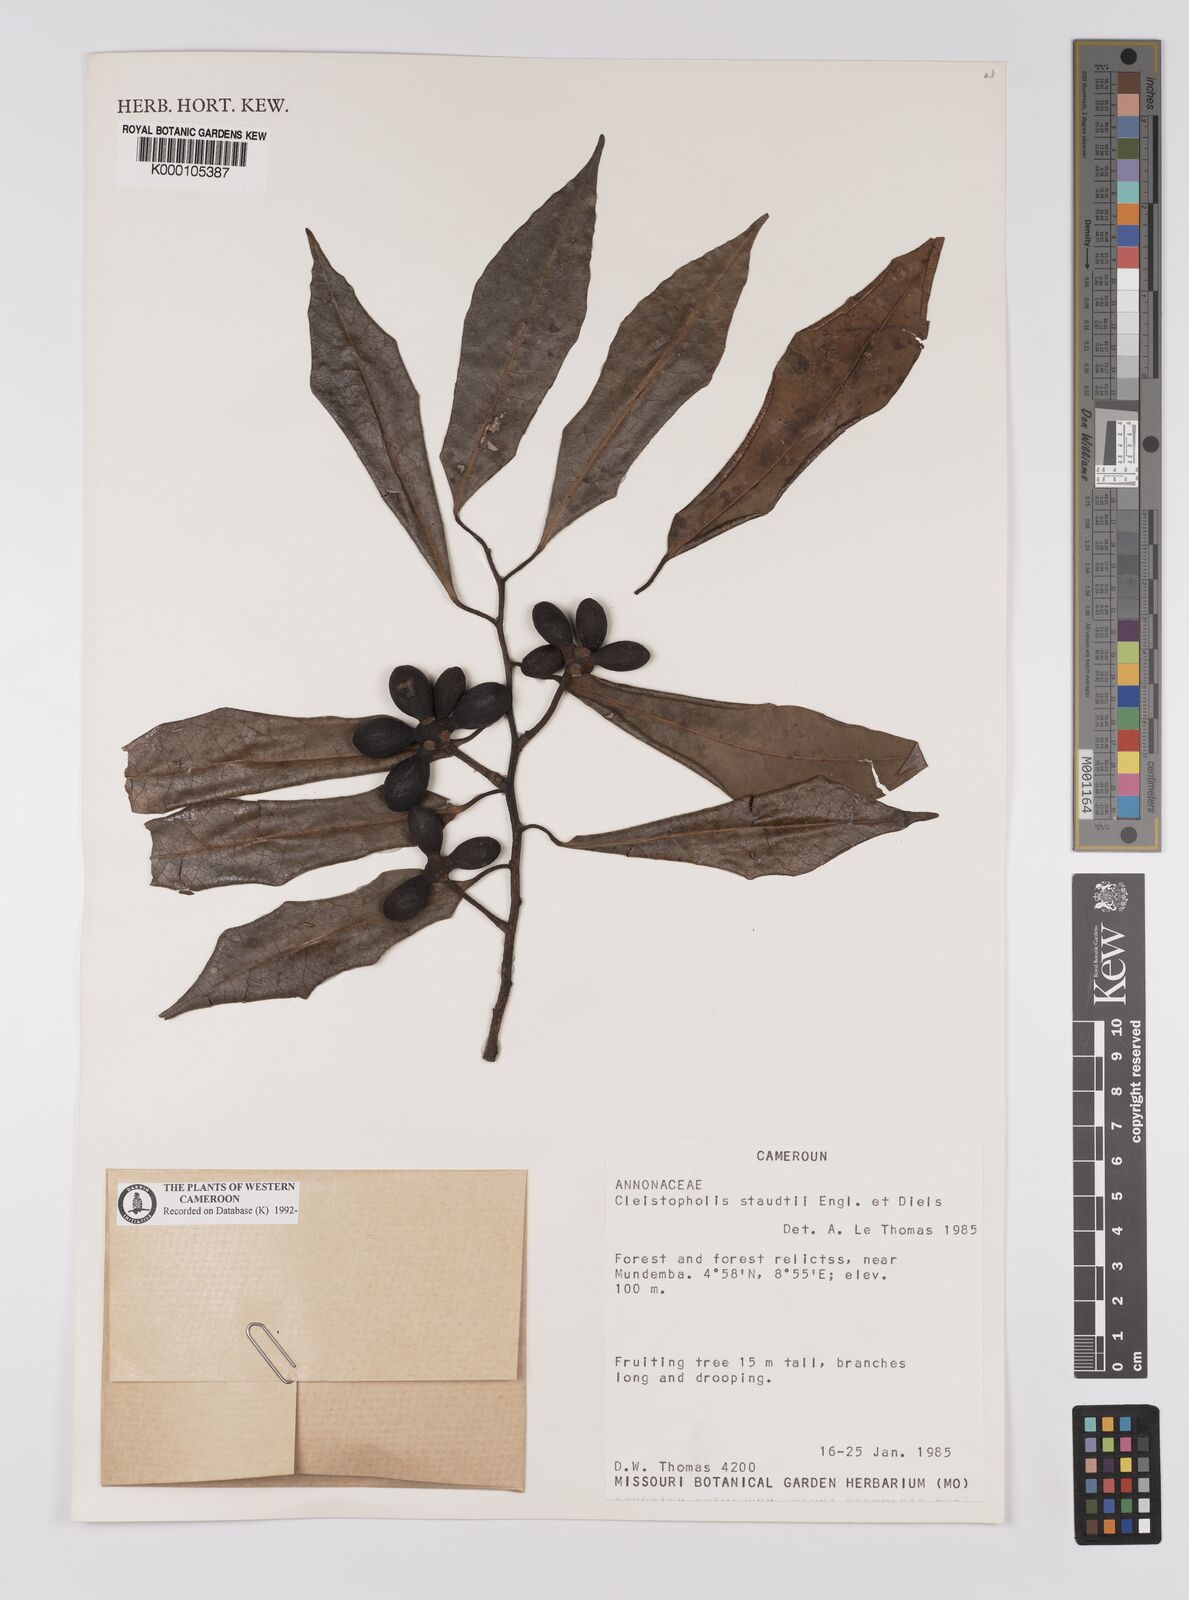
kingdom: Plantae
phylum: Tracheophyta
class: Magnoliopsida
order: Magnoliales
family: Annonaceae
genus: Cleistopholis
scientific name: Cleistopholis staudtii
